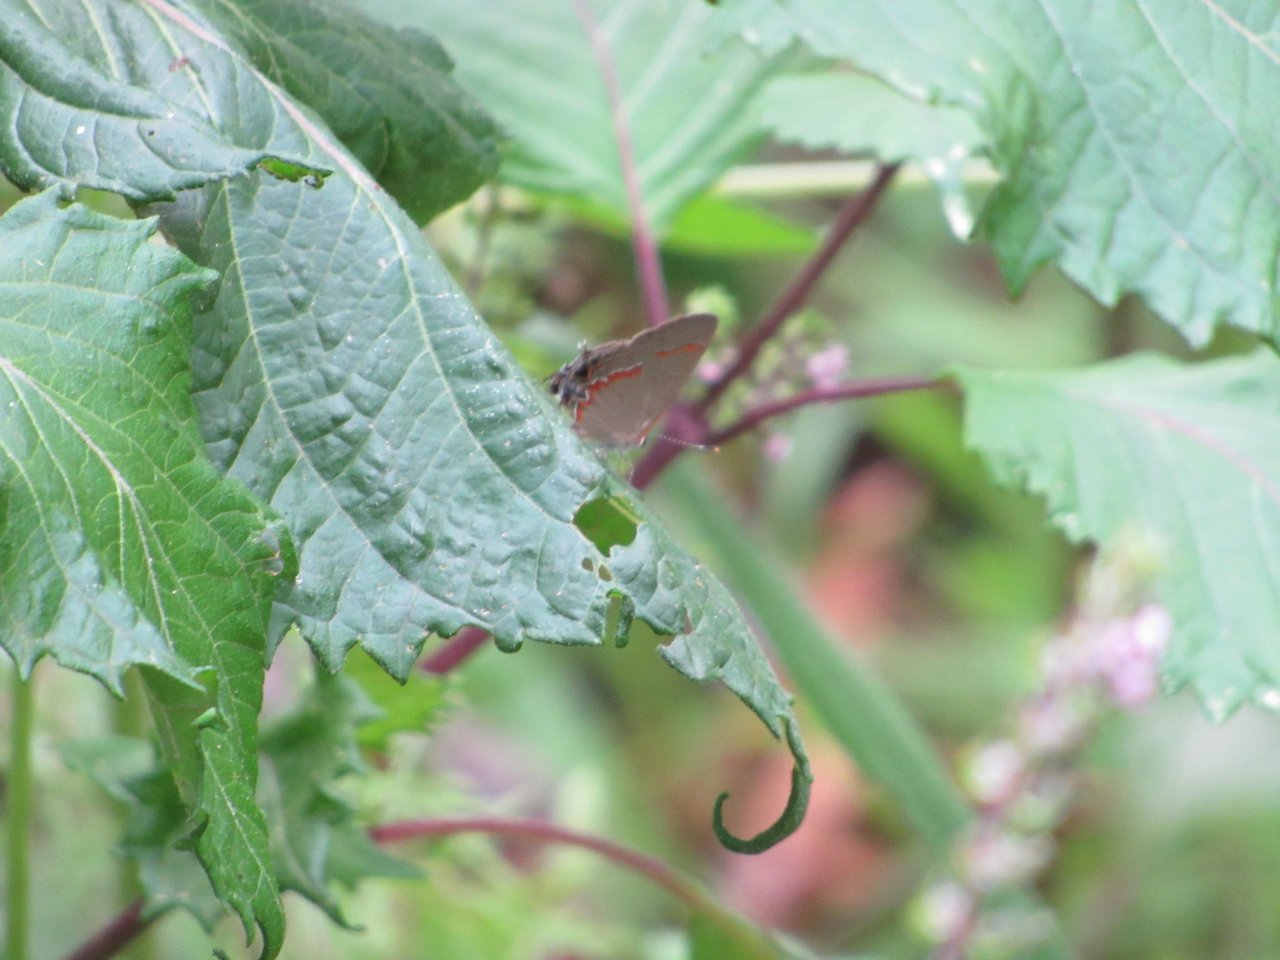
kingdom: Animalia
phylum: Arthropoda
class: Insecta
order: Lepidoptera
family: Lycaenidae
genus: Calycopis
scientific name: Calycopis cecrops
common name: Red-banded Hairstreak
